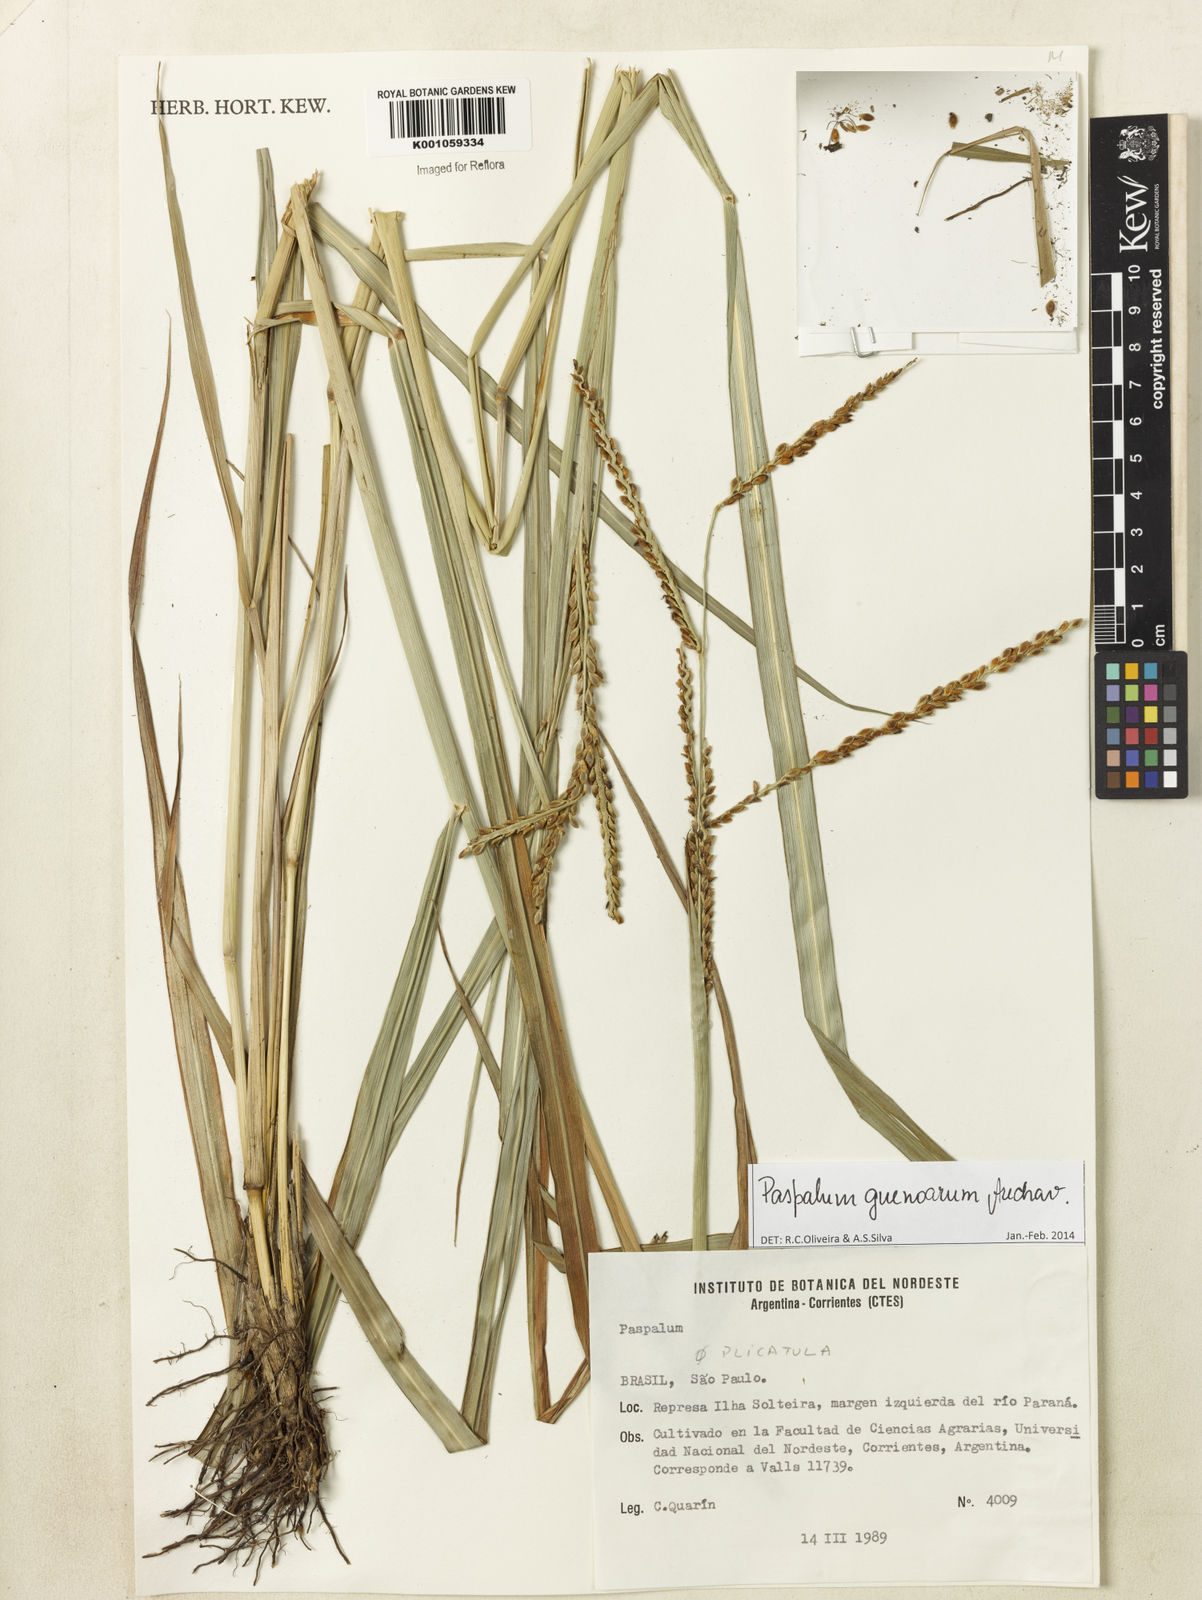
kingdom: Plantae
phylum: Tracheophyta
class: Liliopsida
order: Poales
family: Poaceae
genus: Paspalum
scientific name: Paspalum guenoarum
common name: Wintergreen paspalum
